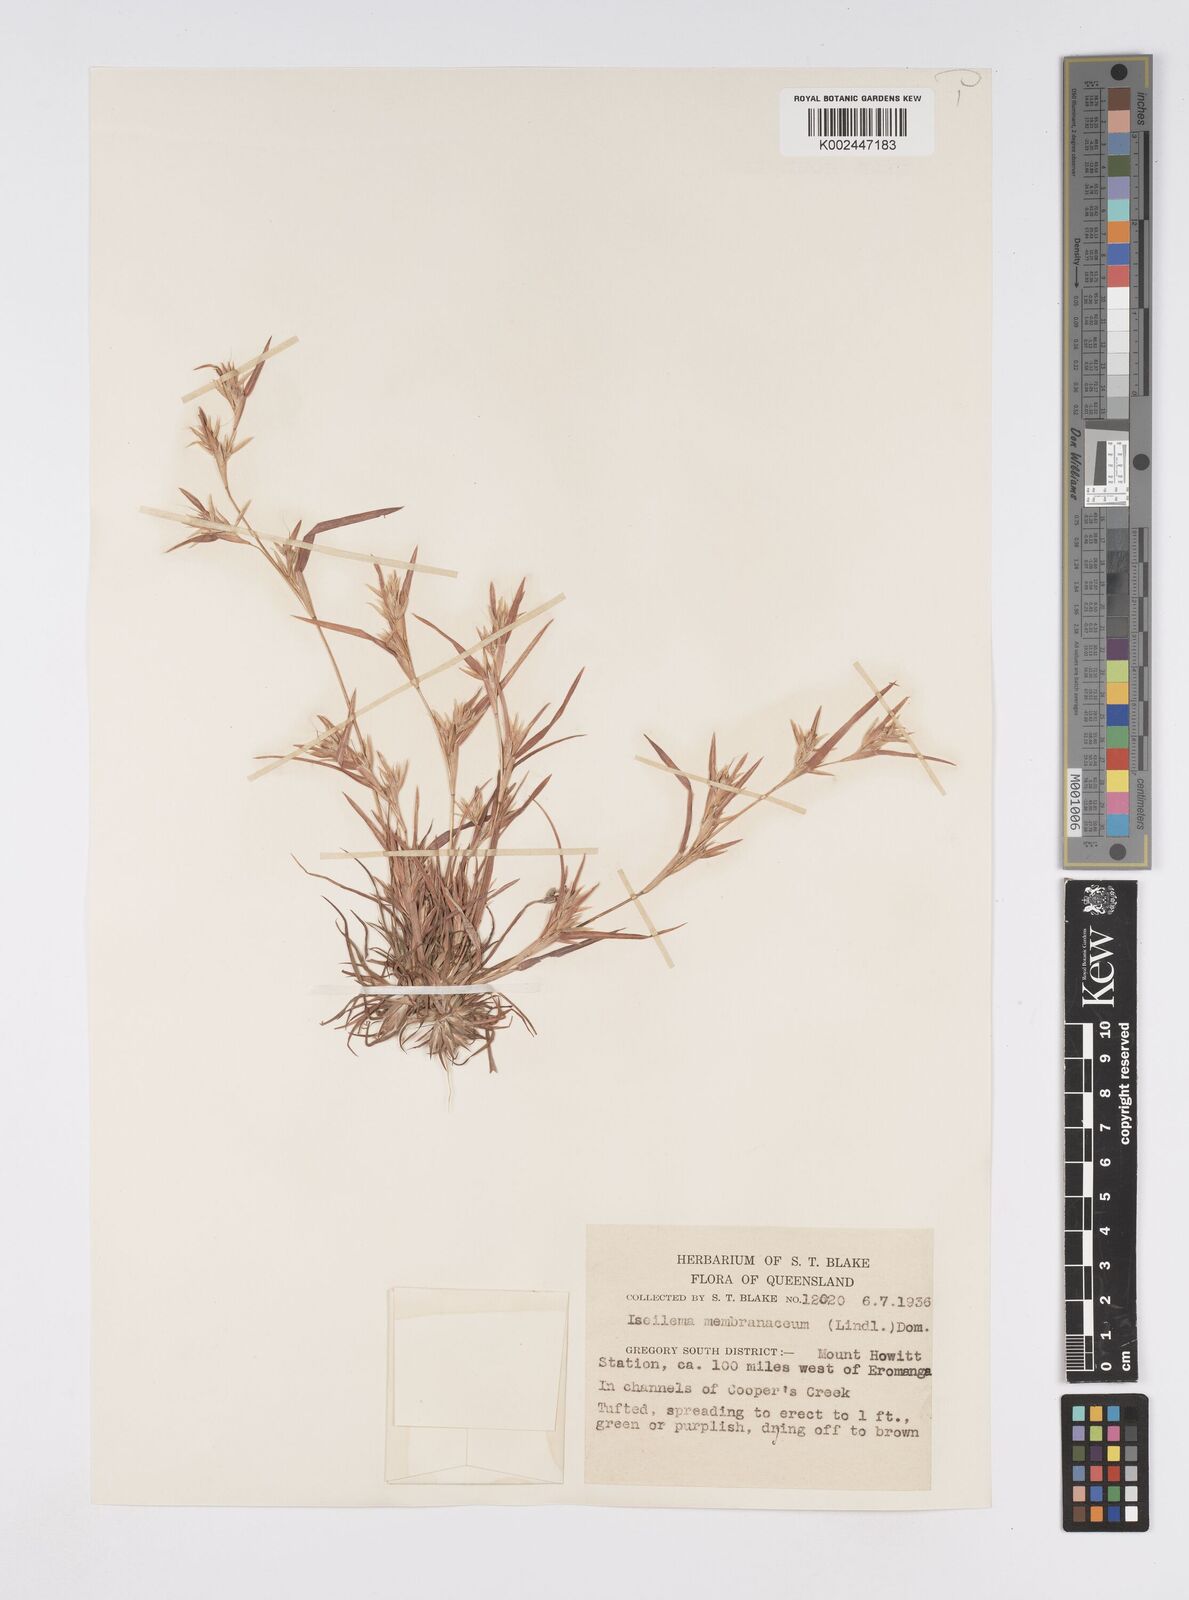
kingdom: Plantae
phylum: Tracheophyta
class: Liliopsida
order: Poales
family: Poaceae
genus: Iseilema
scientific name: Iseilema membranaceum
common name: Small flinders grass
